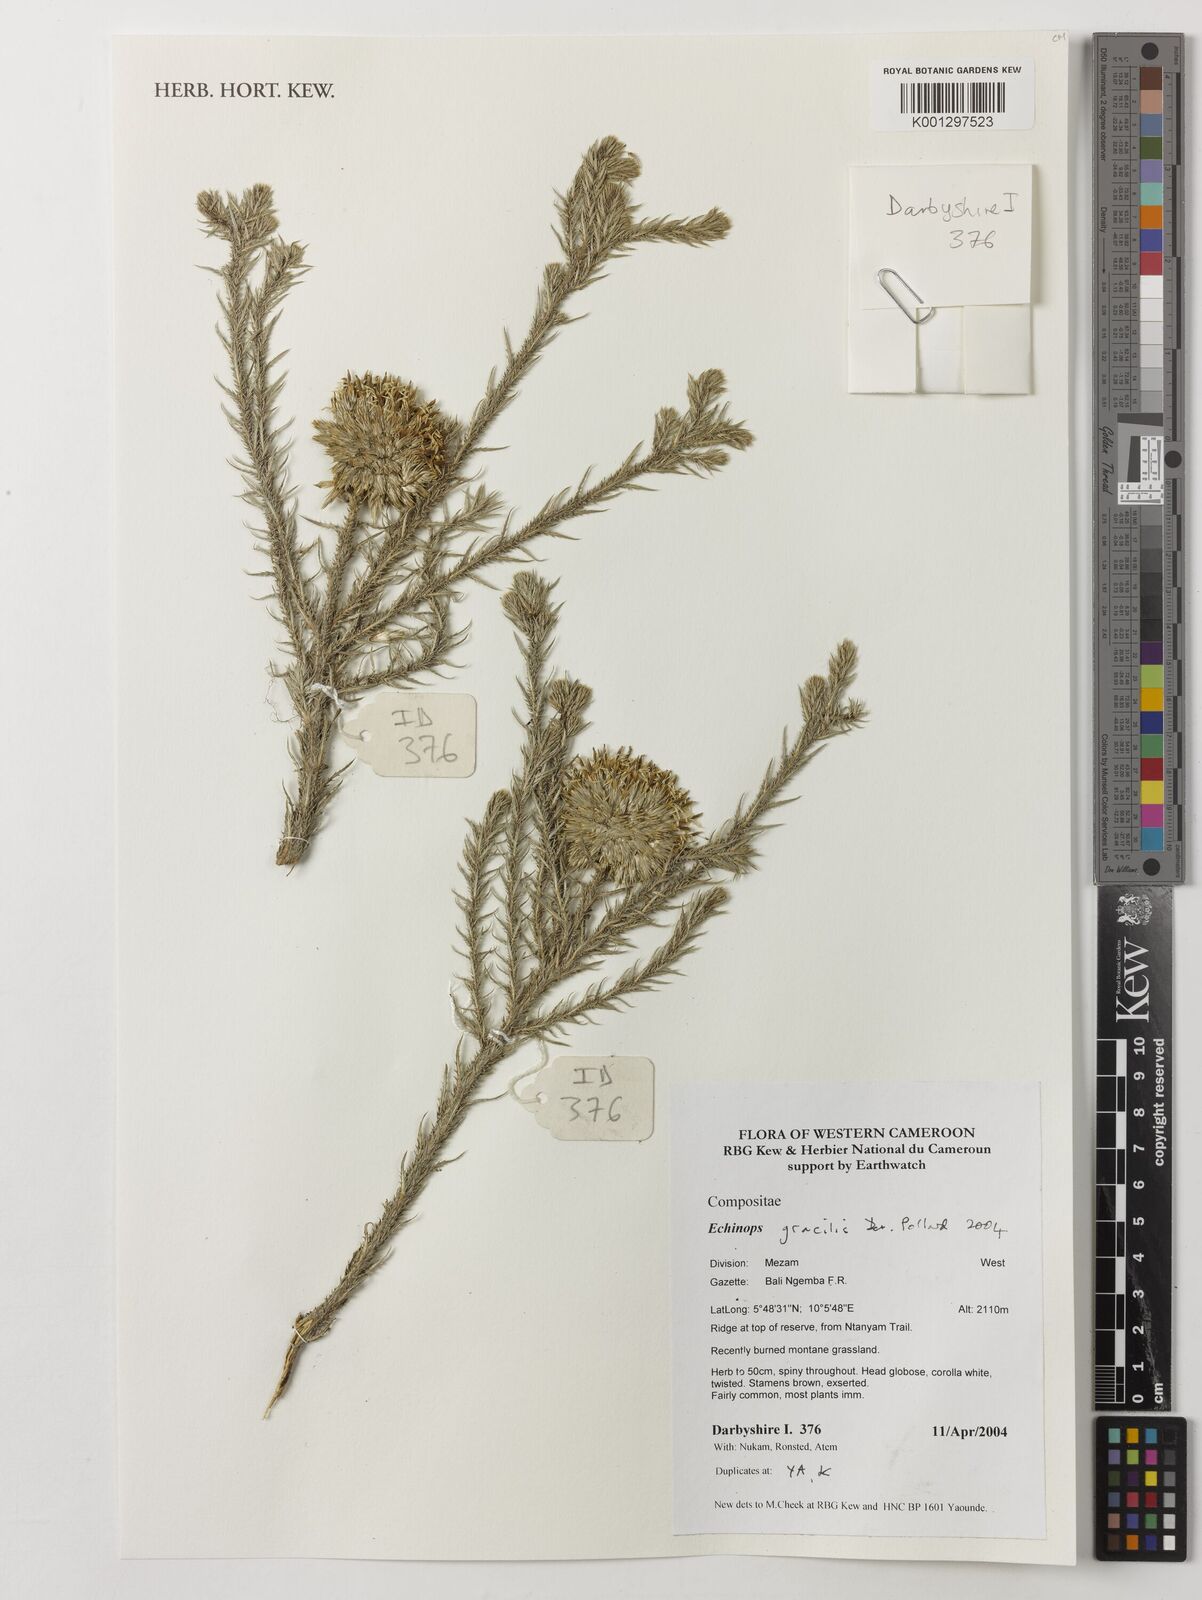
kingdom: Plantae
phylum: Tracheophyta
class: Magnoliopsida
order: Asterales
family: Asteraceae
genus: Echinops
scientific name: Echinops gracilis
